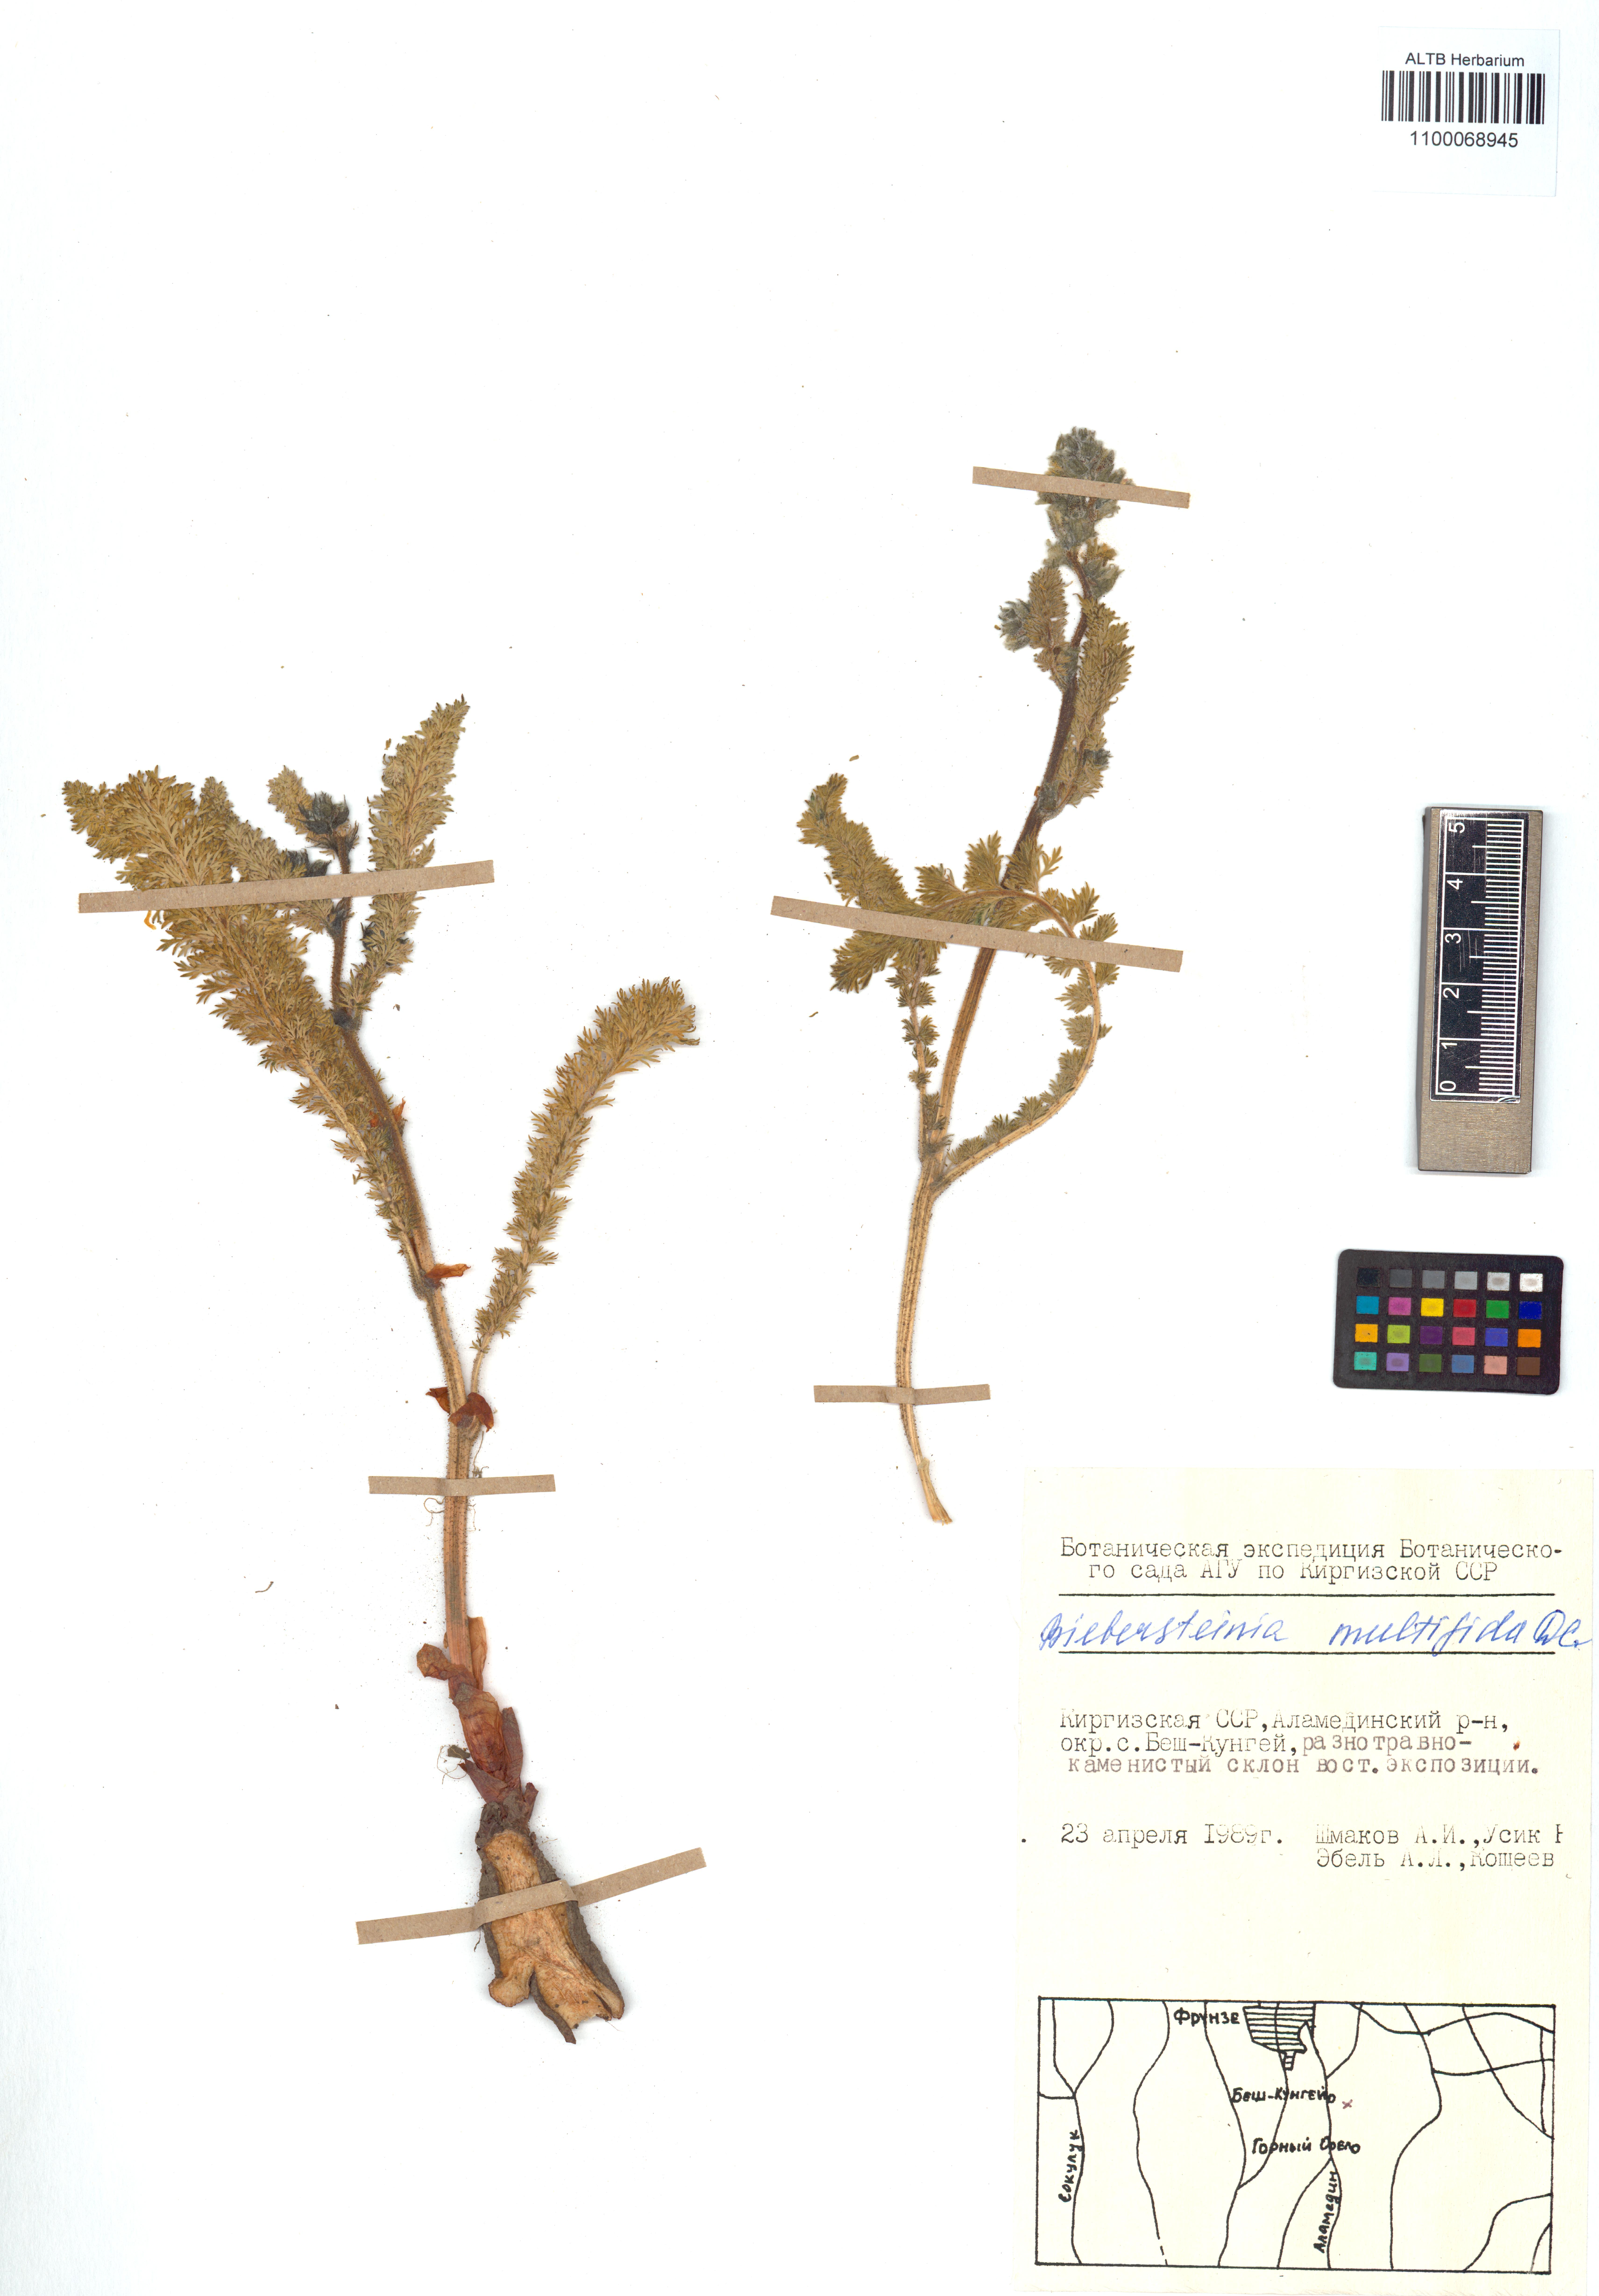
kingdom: Plantae
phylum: Tracheophyta
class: Magnoliopsida
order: Sapindales
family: Biebersteiniaceae
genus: Biebersteinia
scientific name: Biebersteinia multifida
